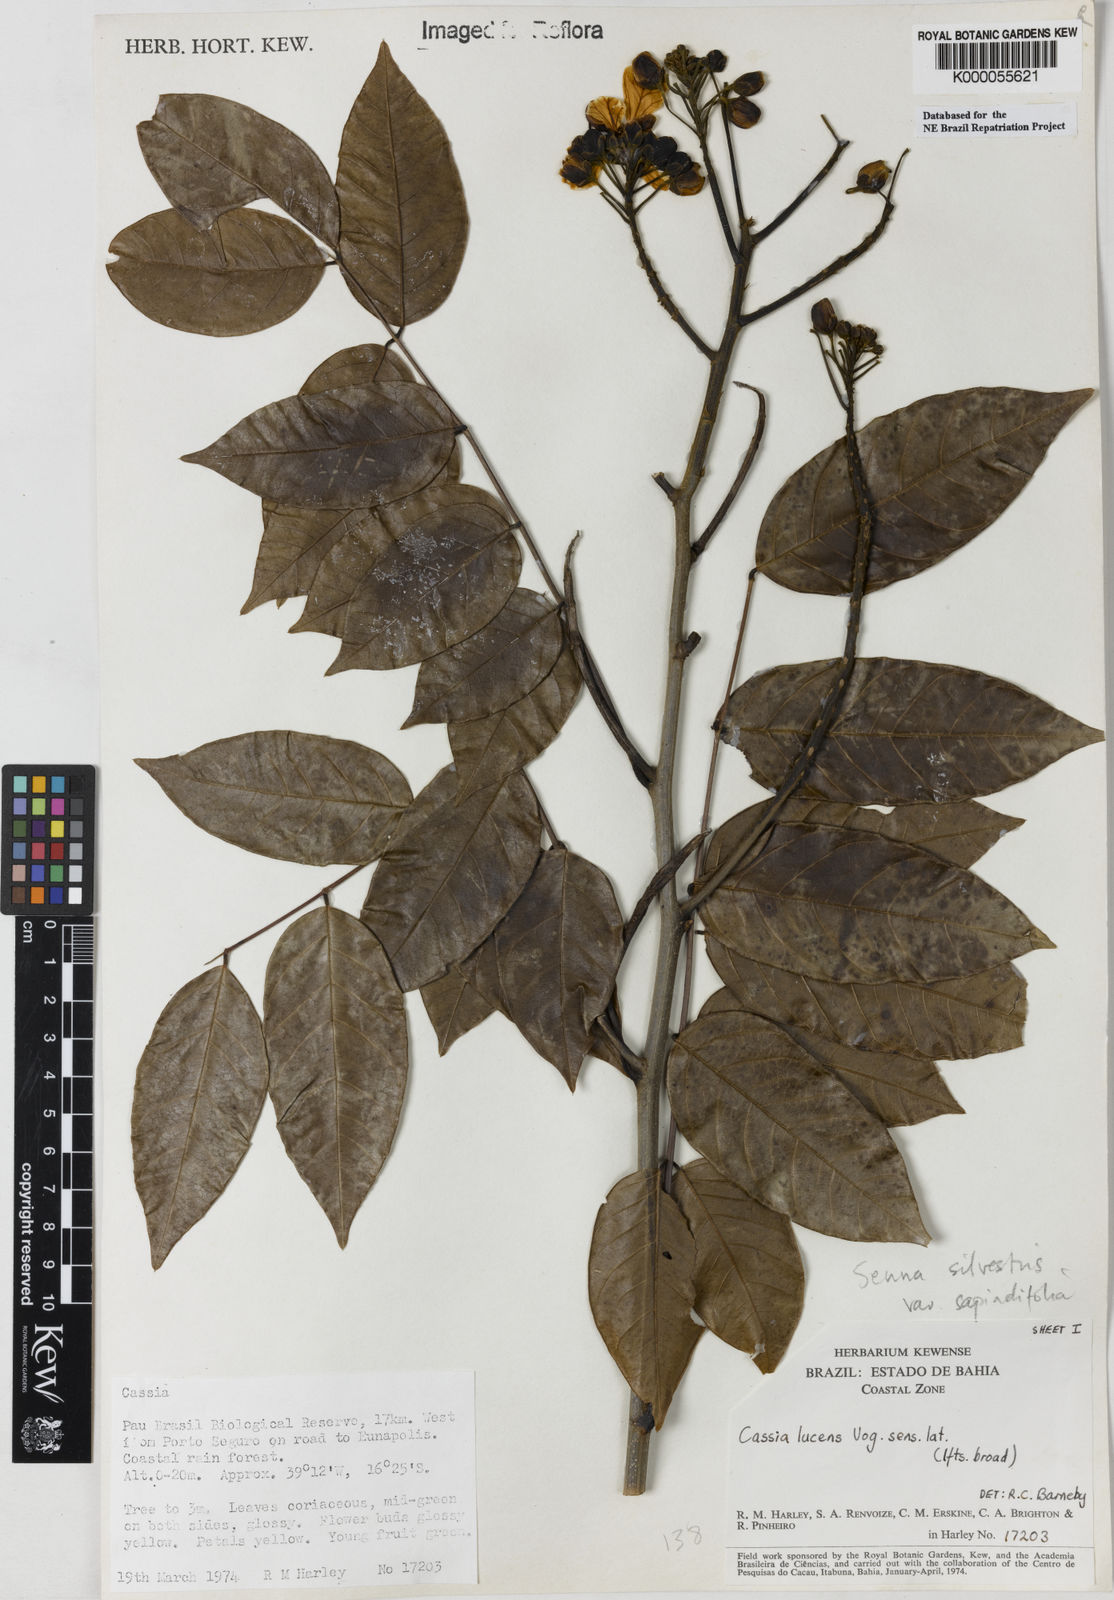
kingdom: Plantae
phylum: Tracheophyta
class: Magnoliopsida
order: Fabales
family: Fabaceae
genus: Senna
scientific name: Senna silvestris
